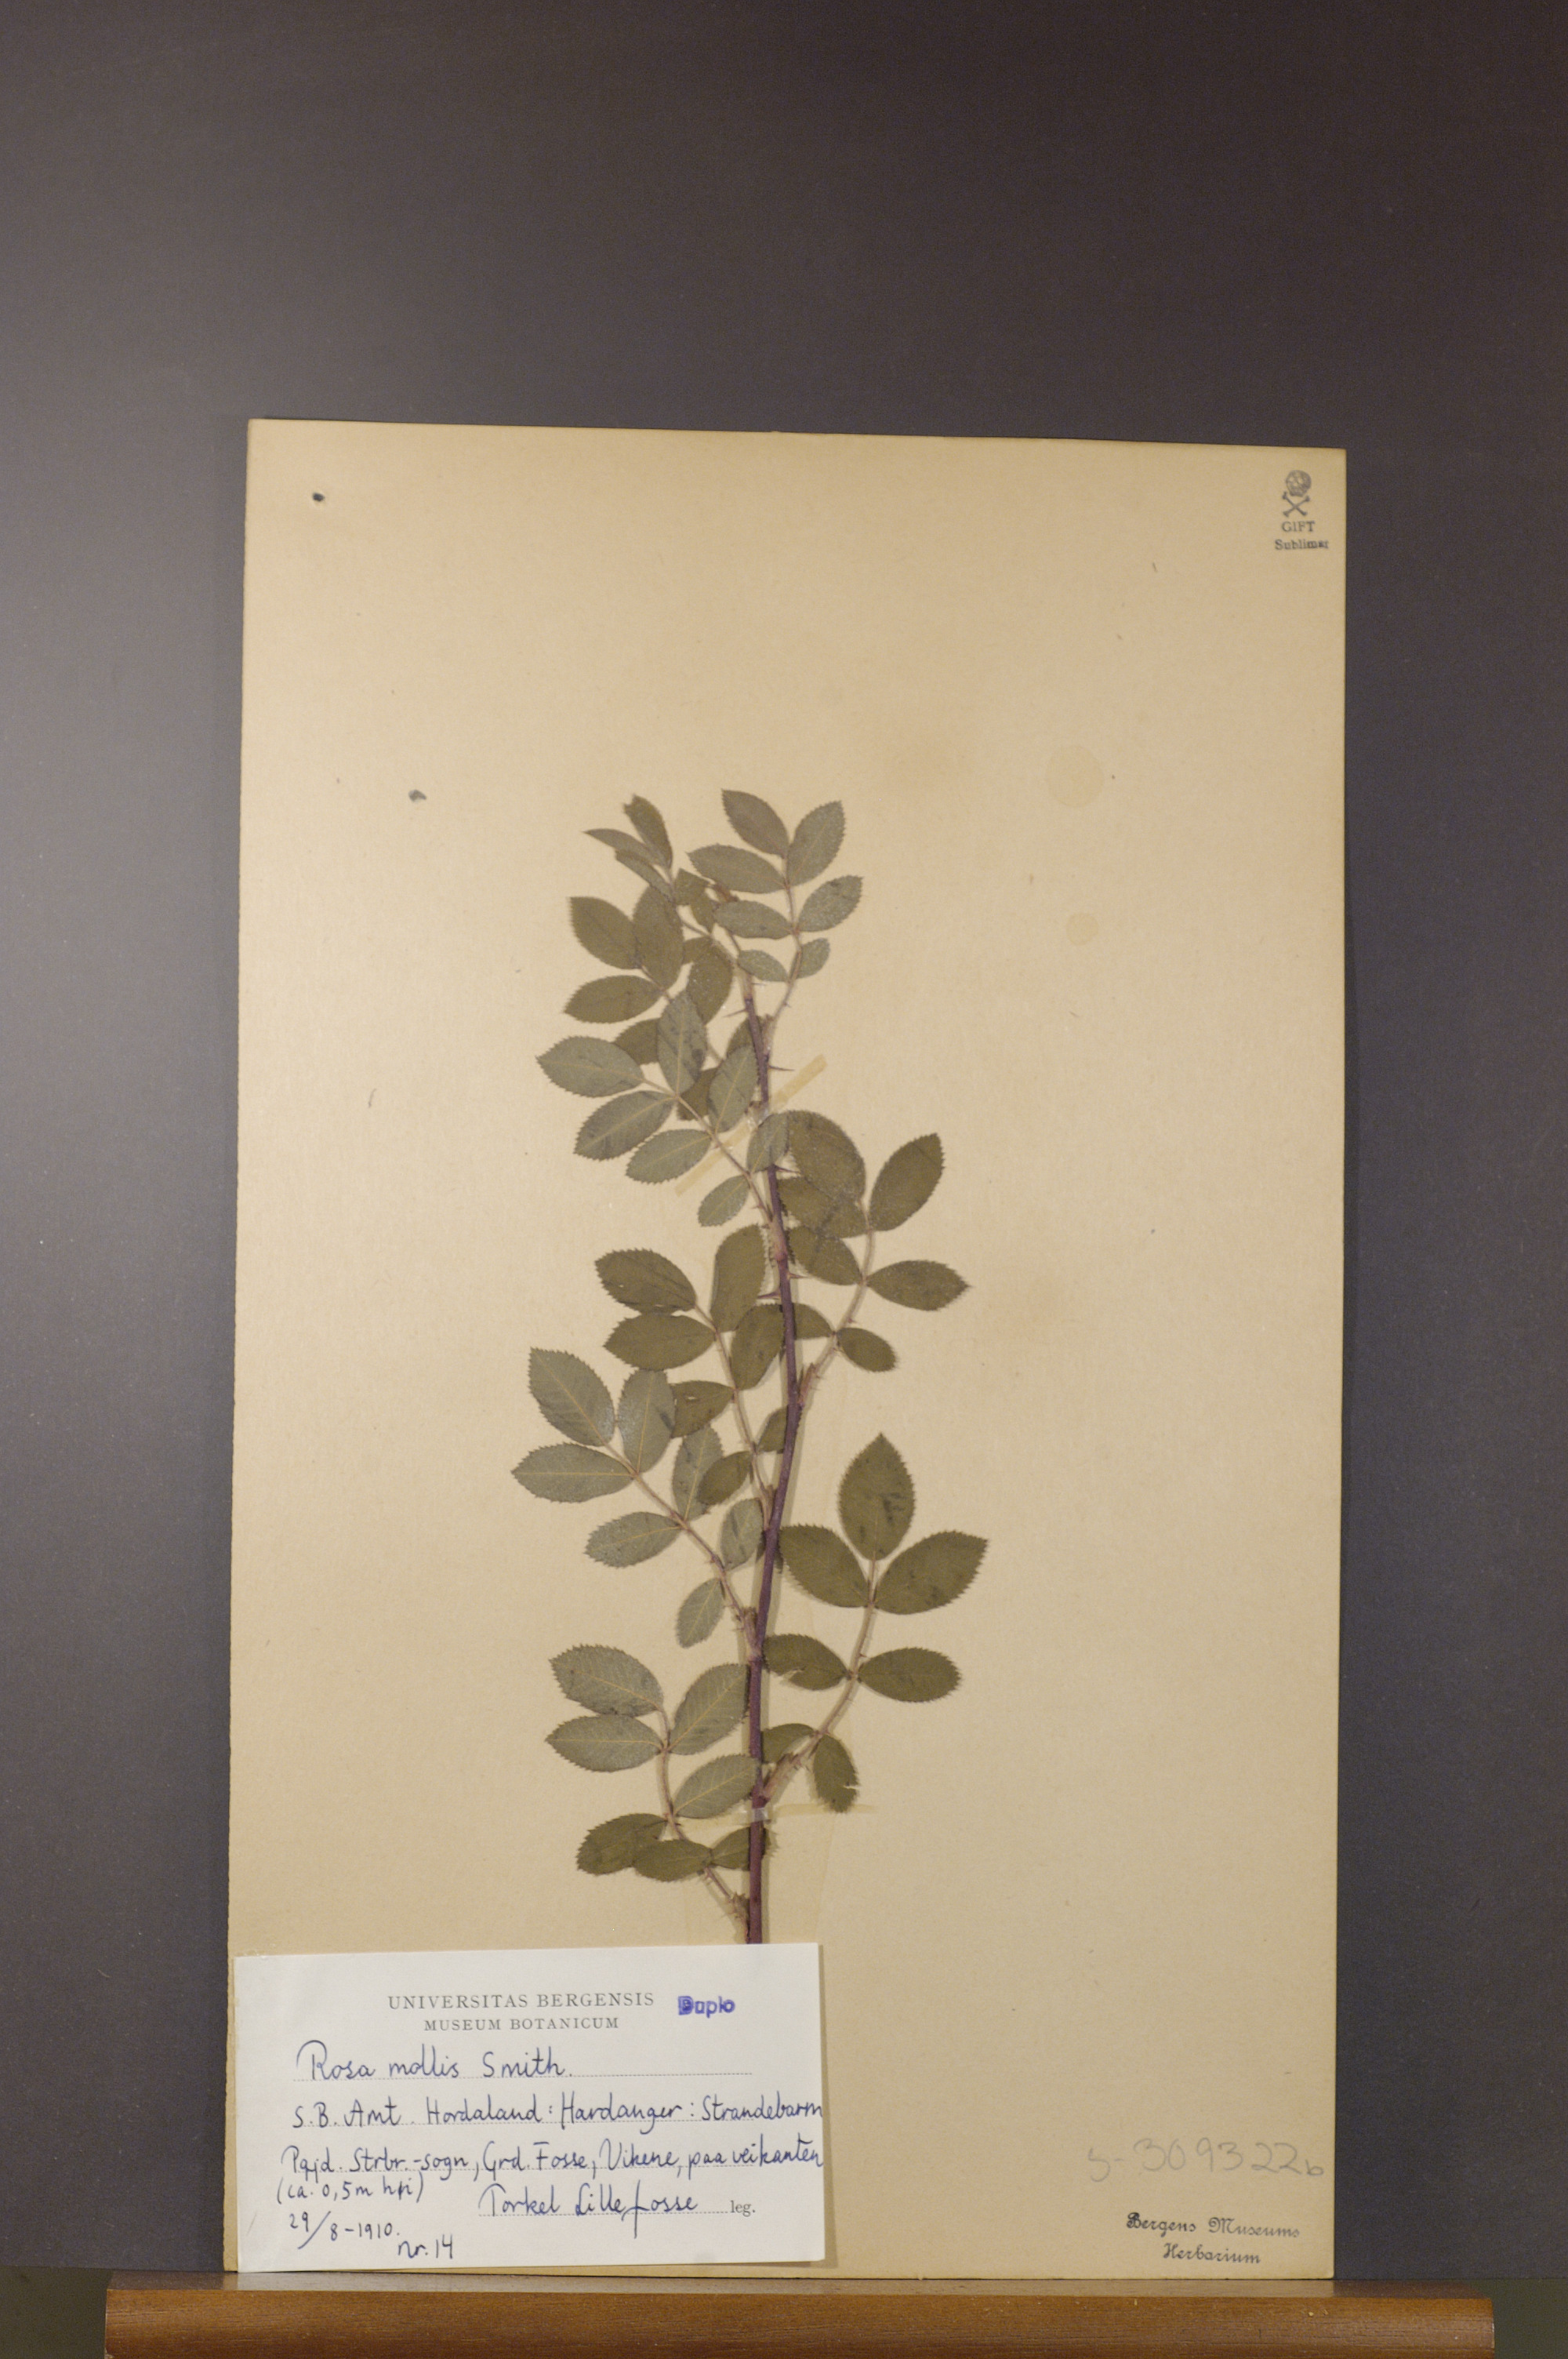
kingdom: Plantae
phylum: Tracheophyta
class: Magnoliopsida
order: Rosales
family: Rosaceae
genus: Rosa
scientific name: Rosa mollis
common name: Rose
